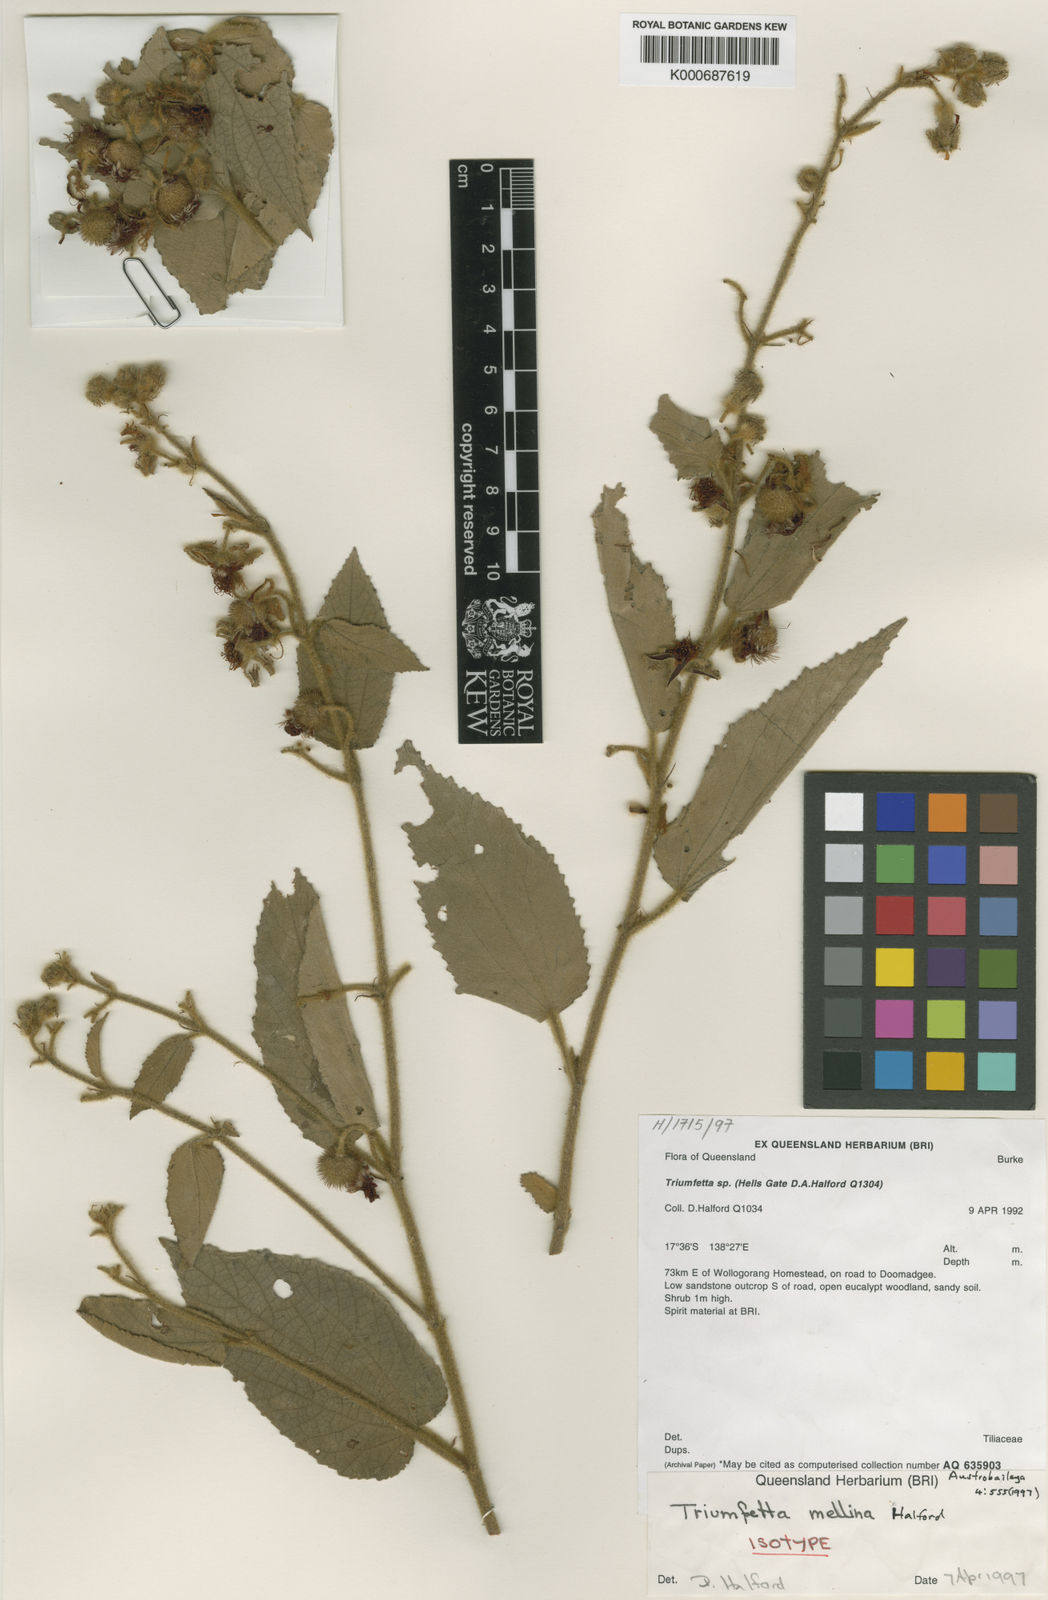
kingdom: Plantae
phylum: Tracheophyta
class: Magnoliopsida
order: Malvales
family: Malvaceae
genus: Triumfetta
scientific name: Triumfetta mellina
